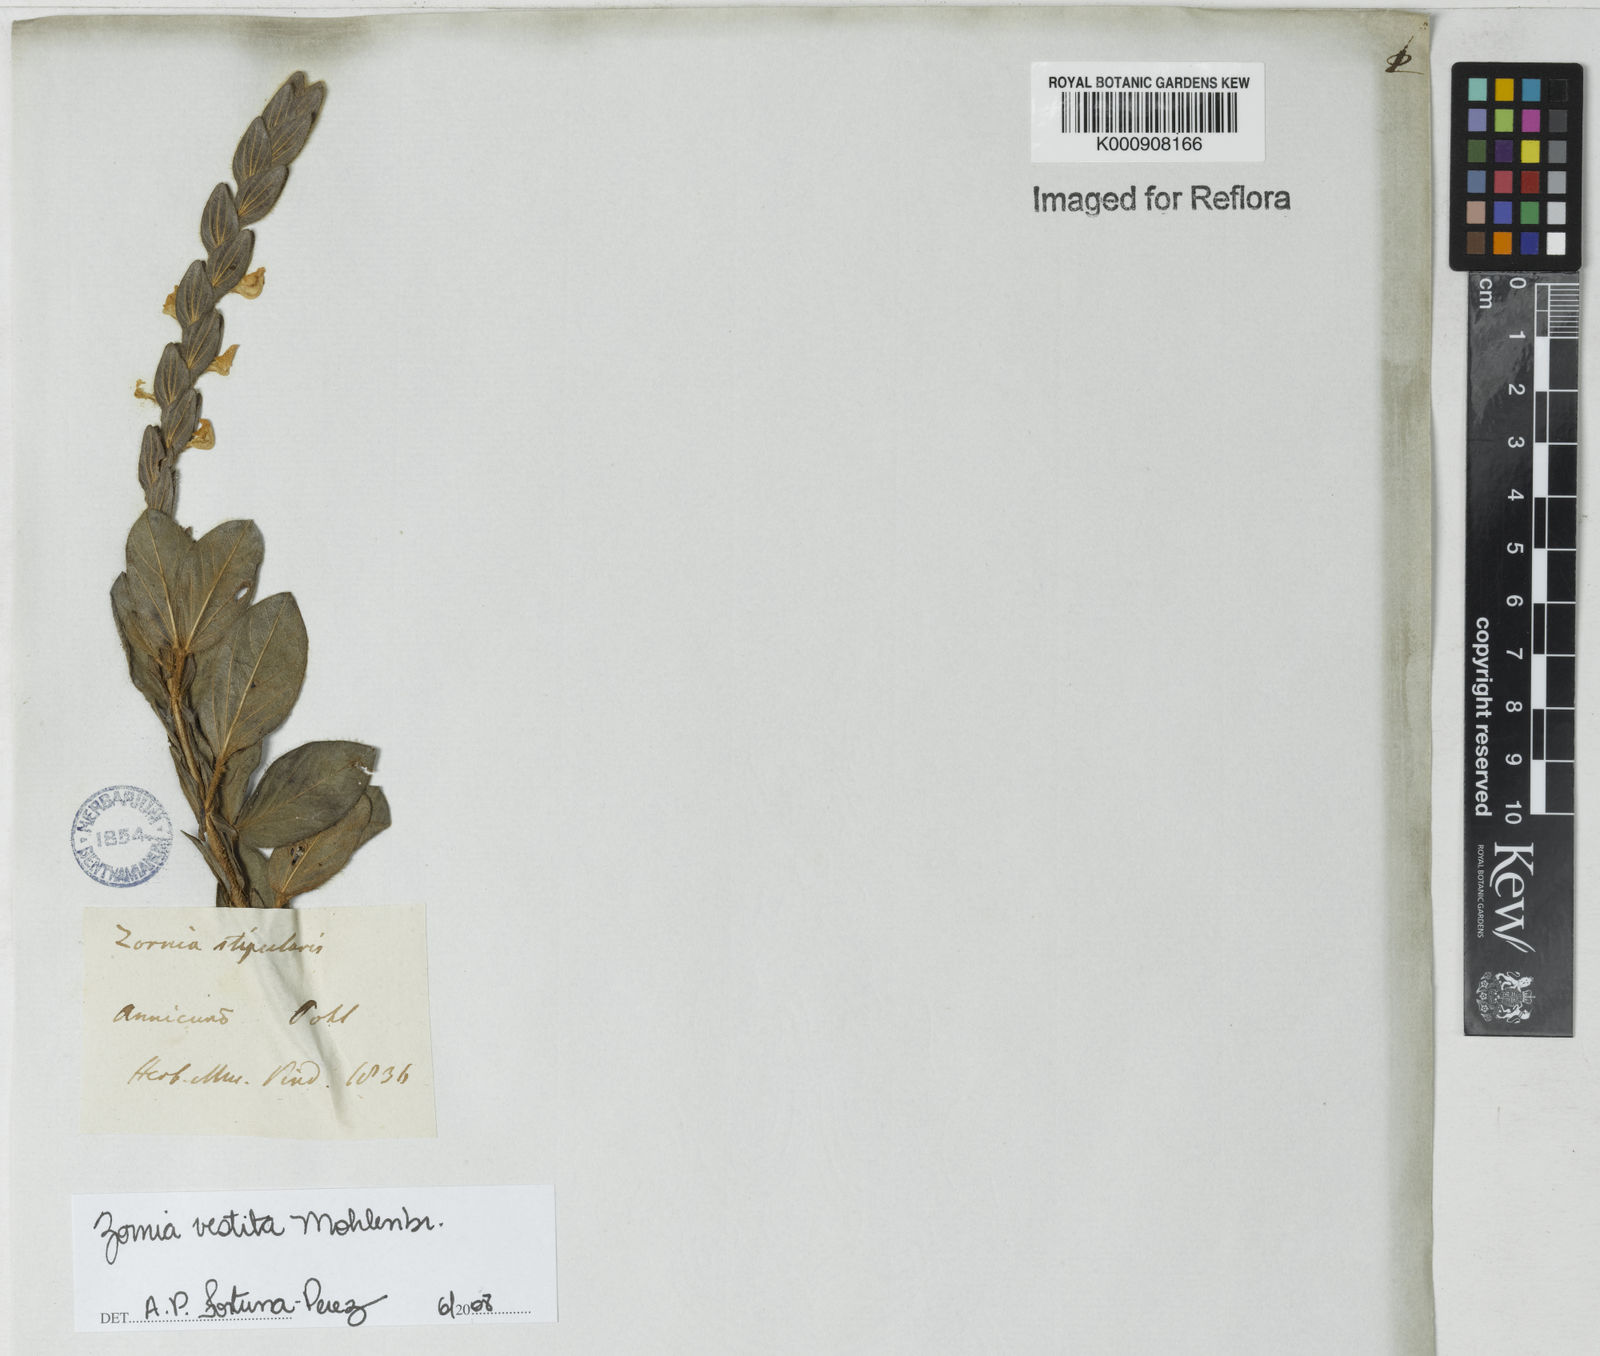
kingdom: Plantae
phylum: Tracheophyta
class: Magnoliopsida
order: Fabales
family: Fabaceae
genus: Zornia
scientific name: Zornia villosa
